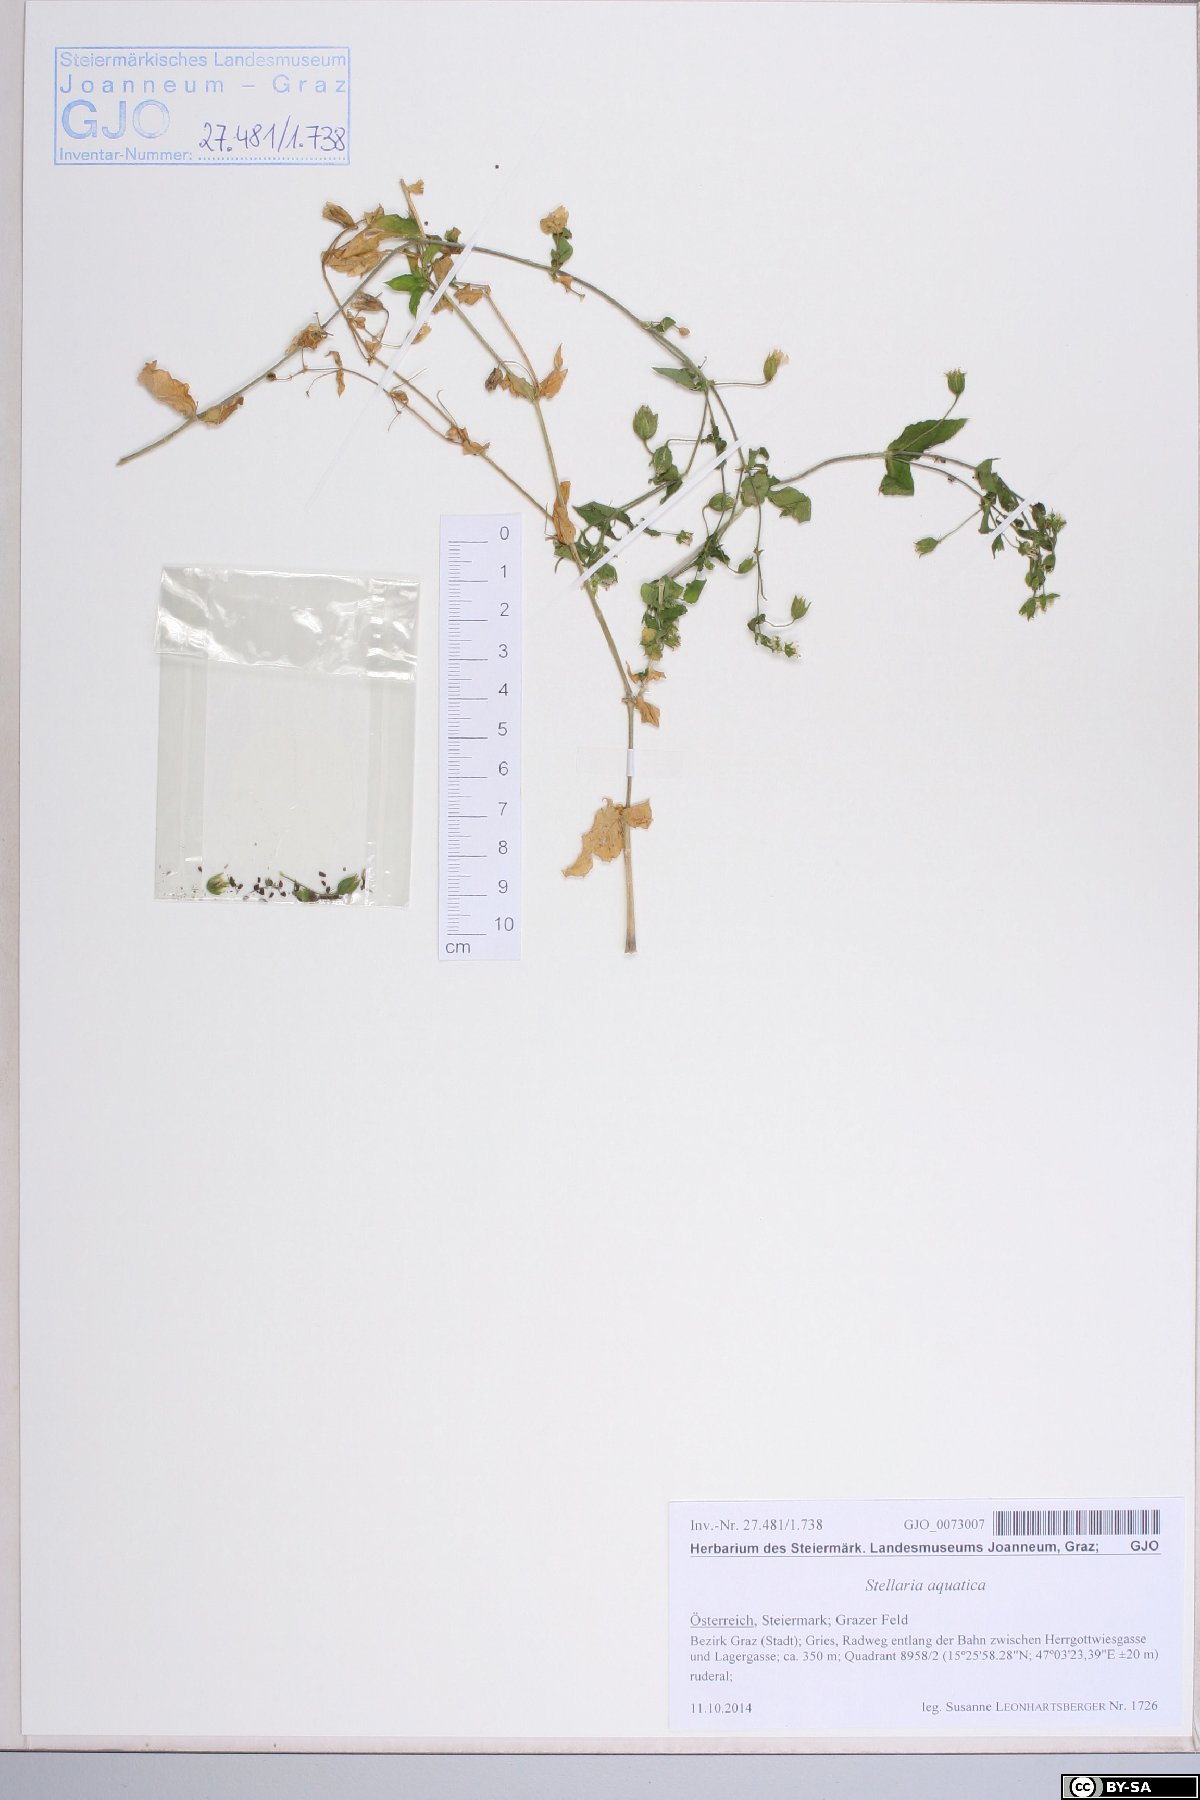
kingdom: Plantae
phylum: Tracheophyta
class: Magnoliopsida
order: Caryophyllales
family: Caryophyllaceae
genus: Stellaria
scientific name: Stellaria aquatica
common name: Water chickweed
